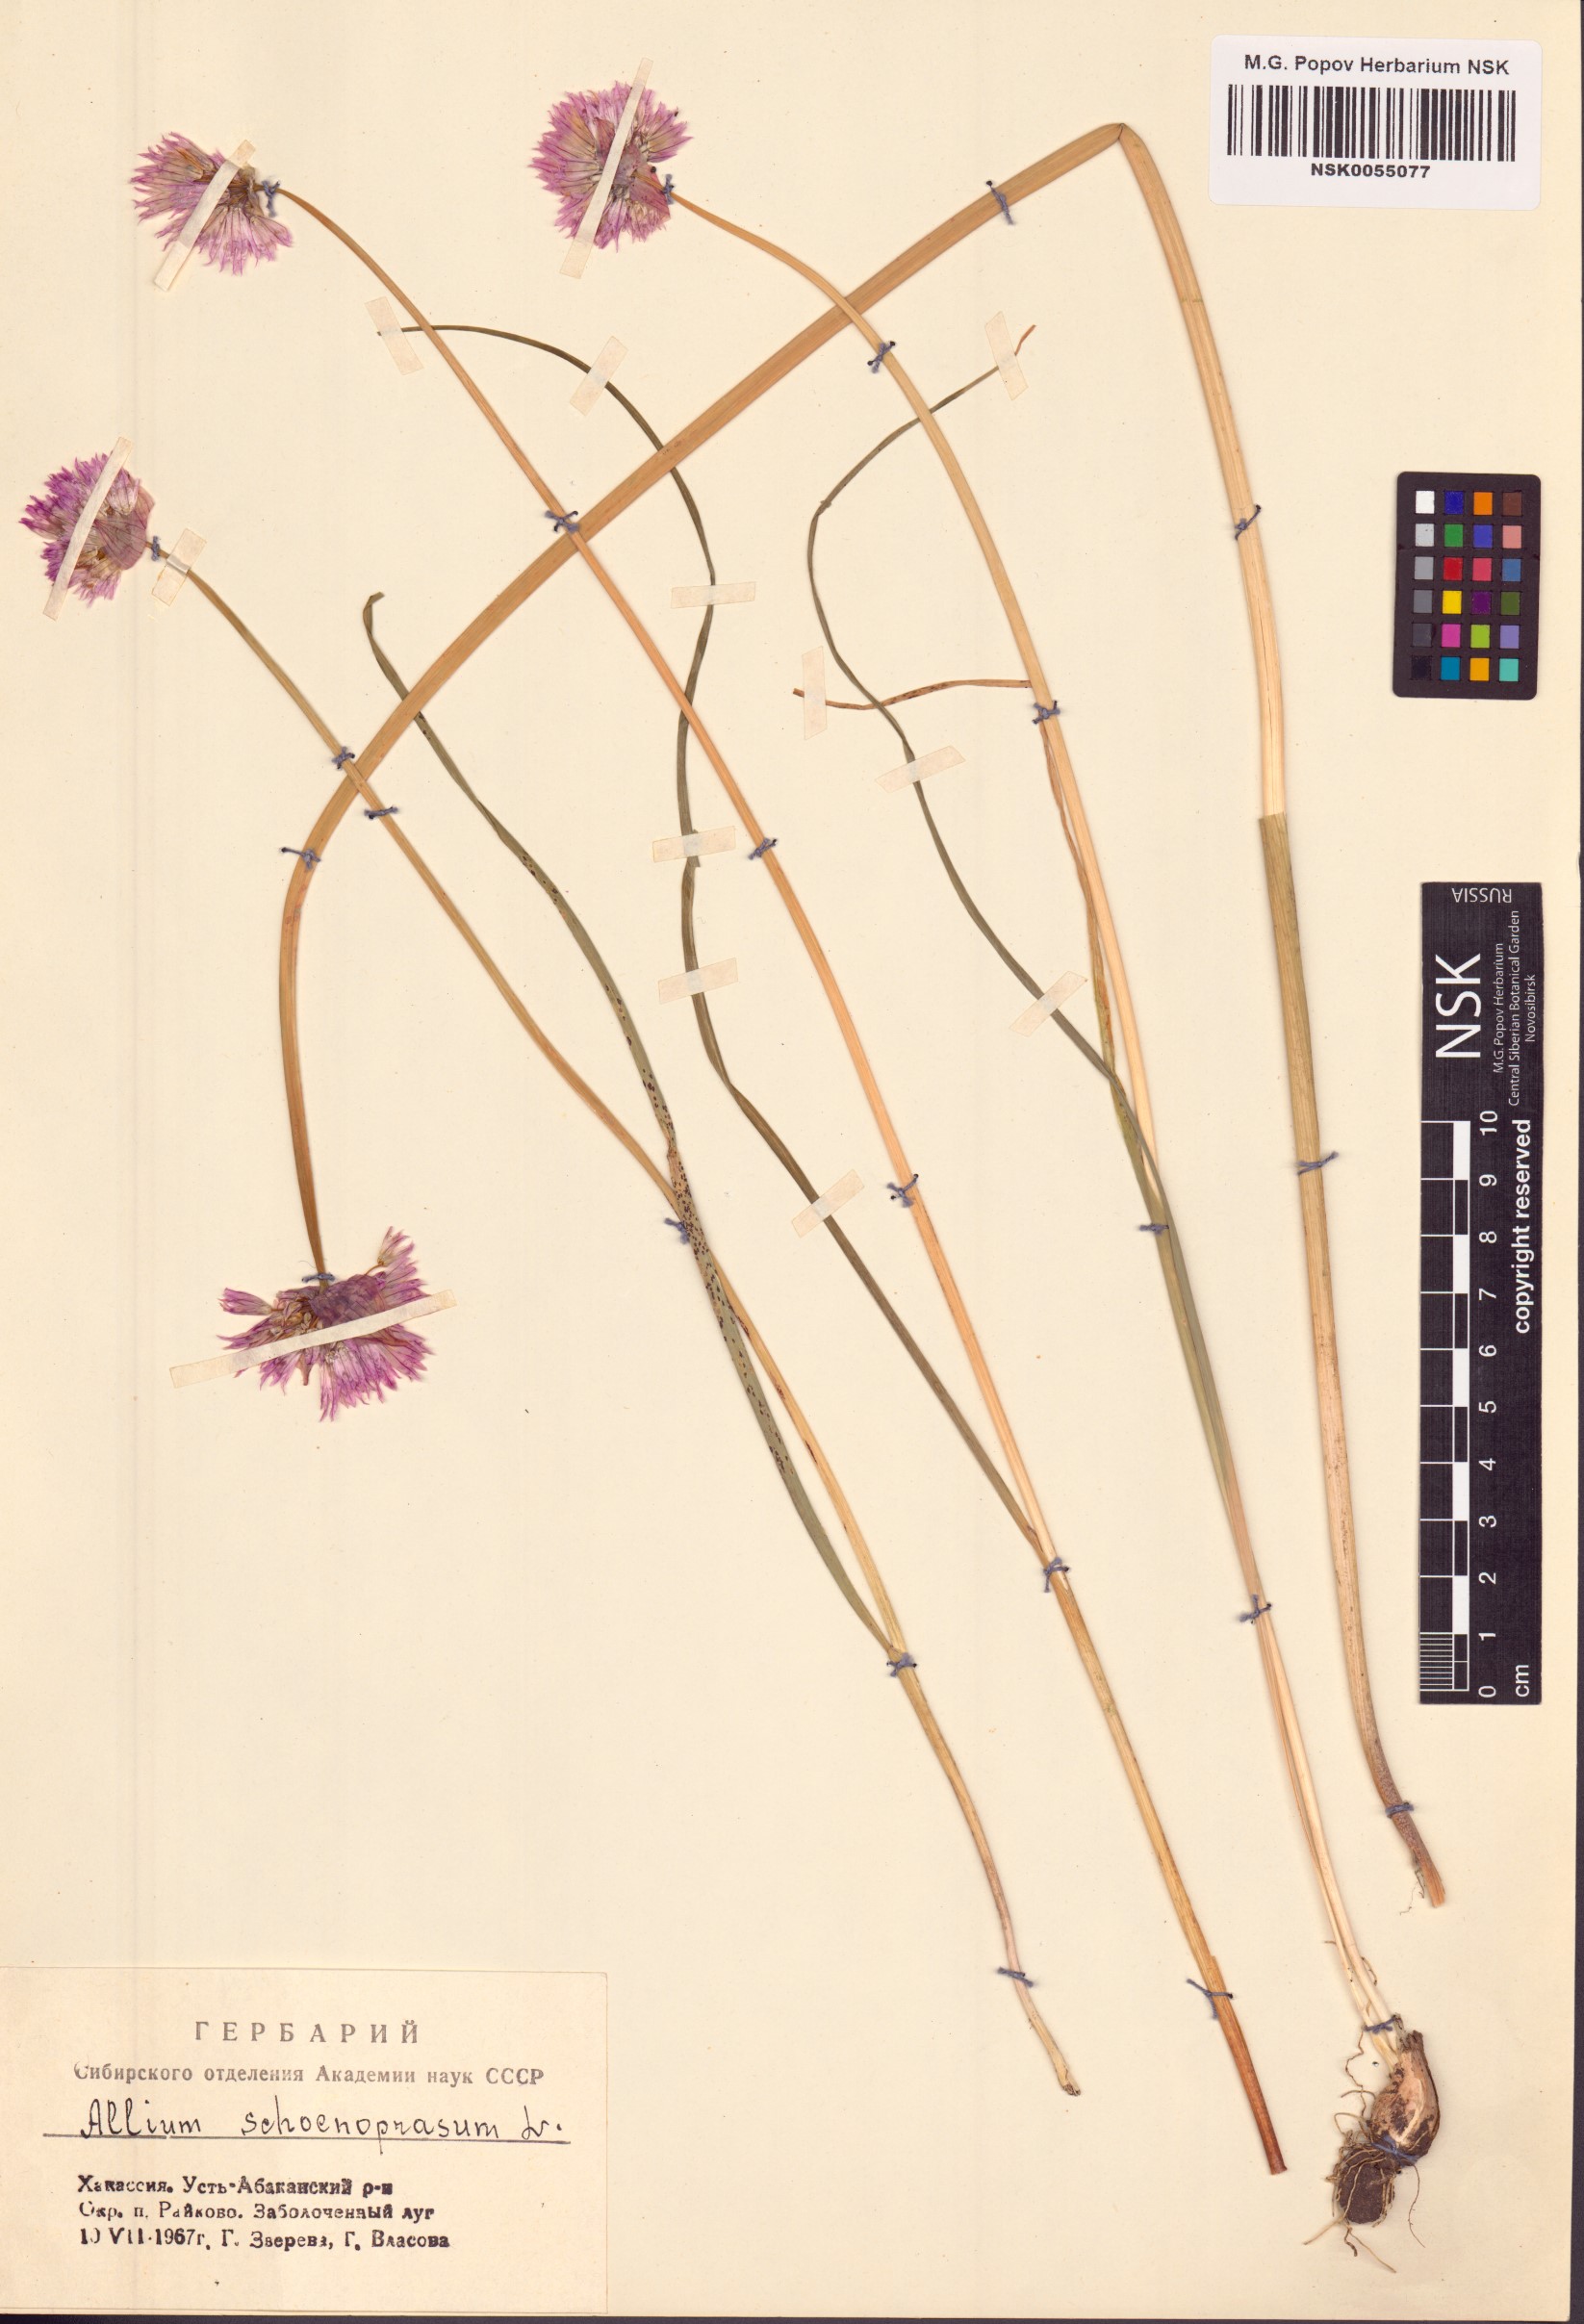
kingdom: Plantae
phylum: Tracheophyta
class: Liliopsida
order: Asparagales
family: Amaryllidaceae
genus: Allium
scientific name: Allium schoenoprasum
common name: Chives
